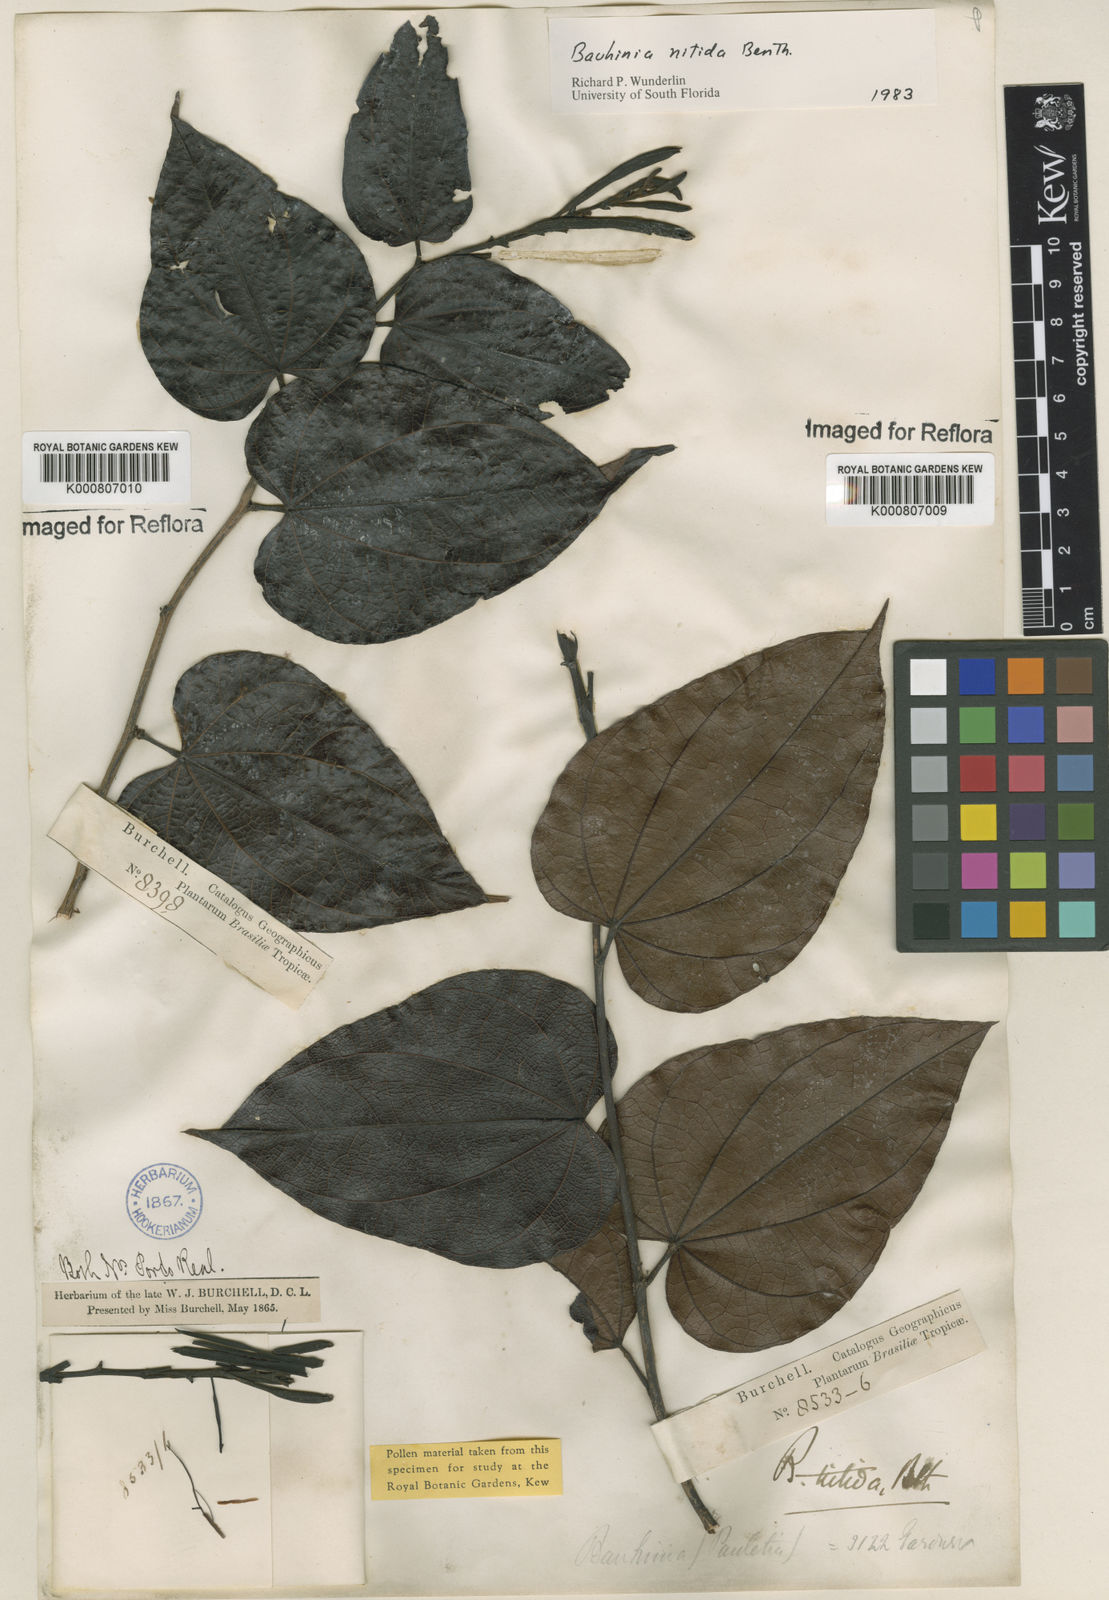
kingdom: Plantae
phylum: Tracheophyta
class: Magnoliopsida
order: Fabales
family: Fabaceae
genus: Bauhinia
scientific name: Bauhinia dubia
